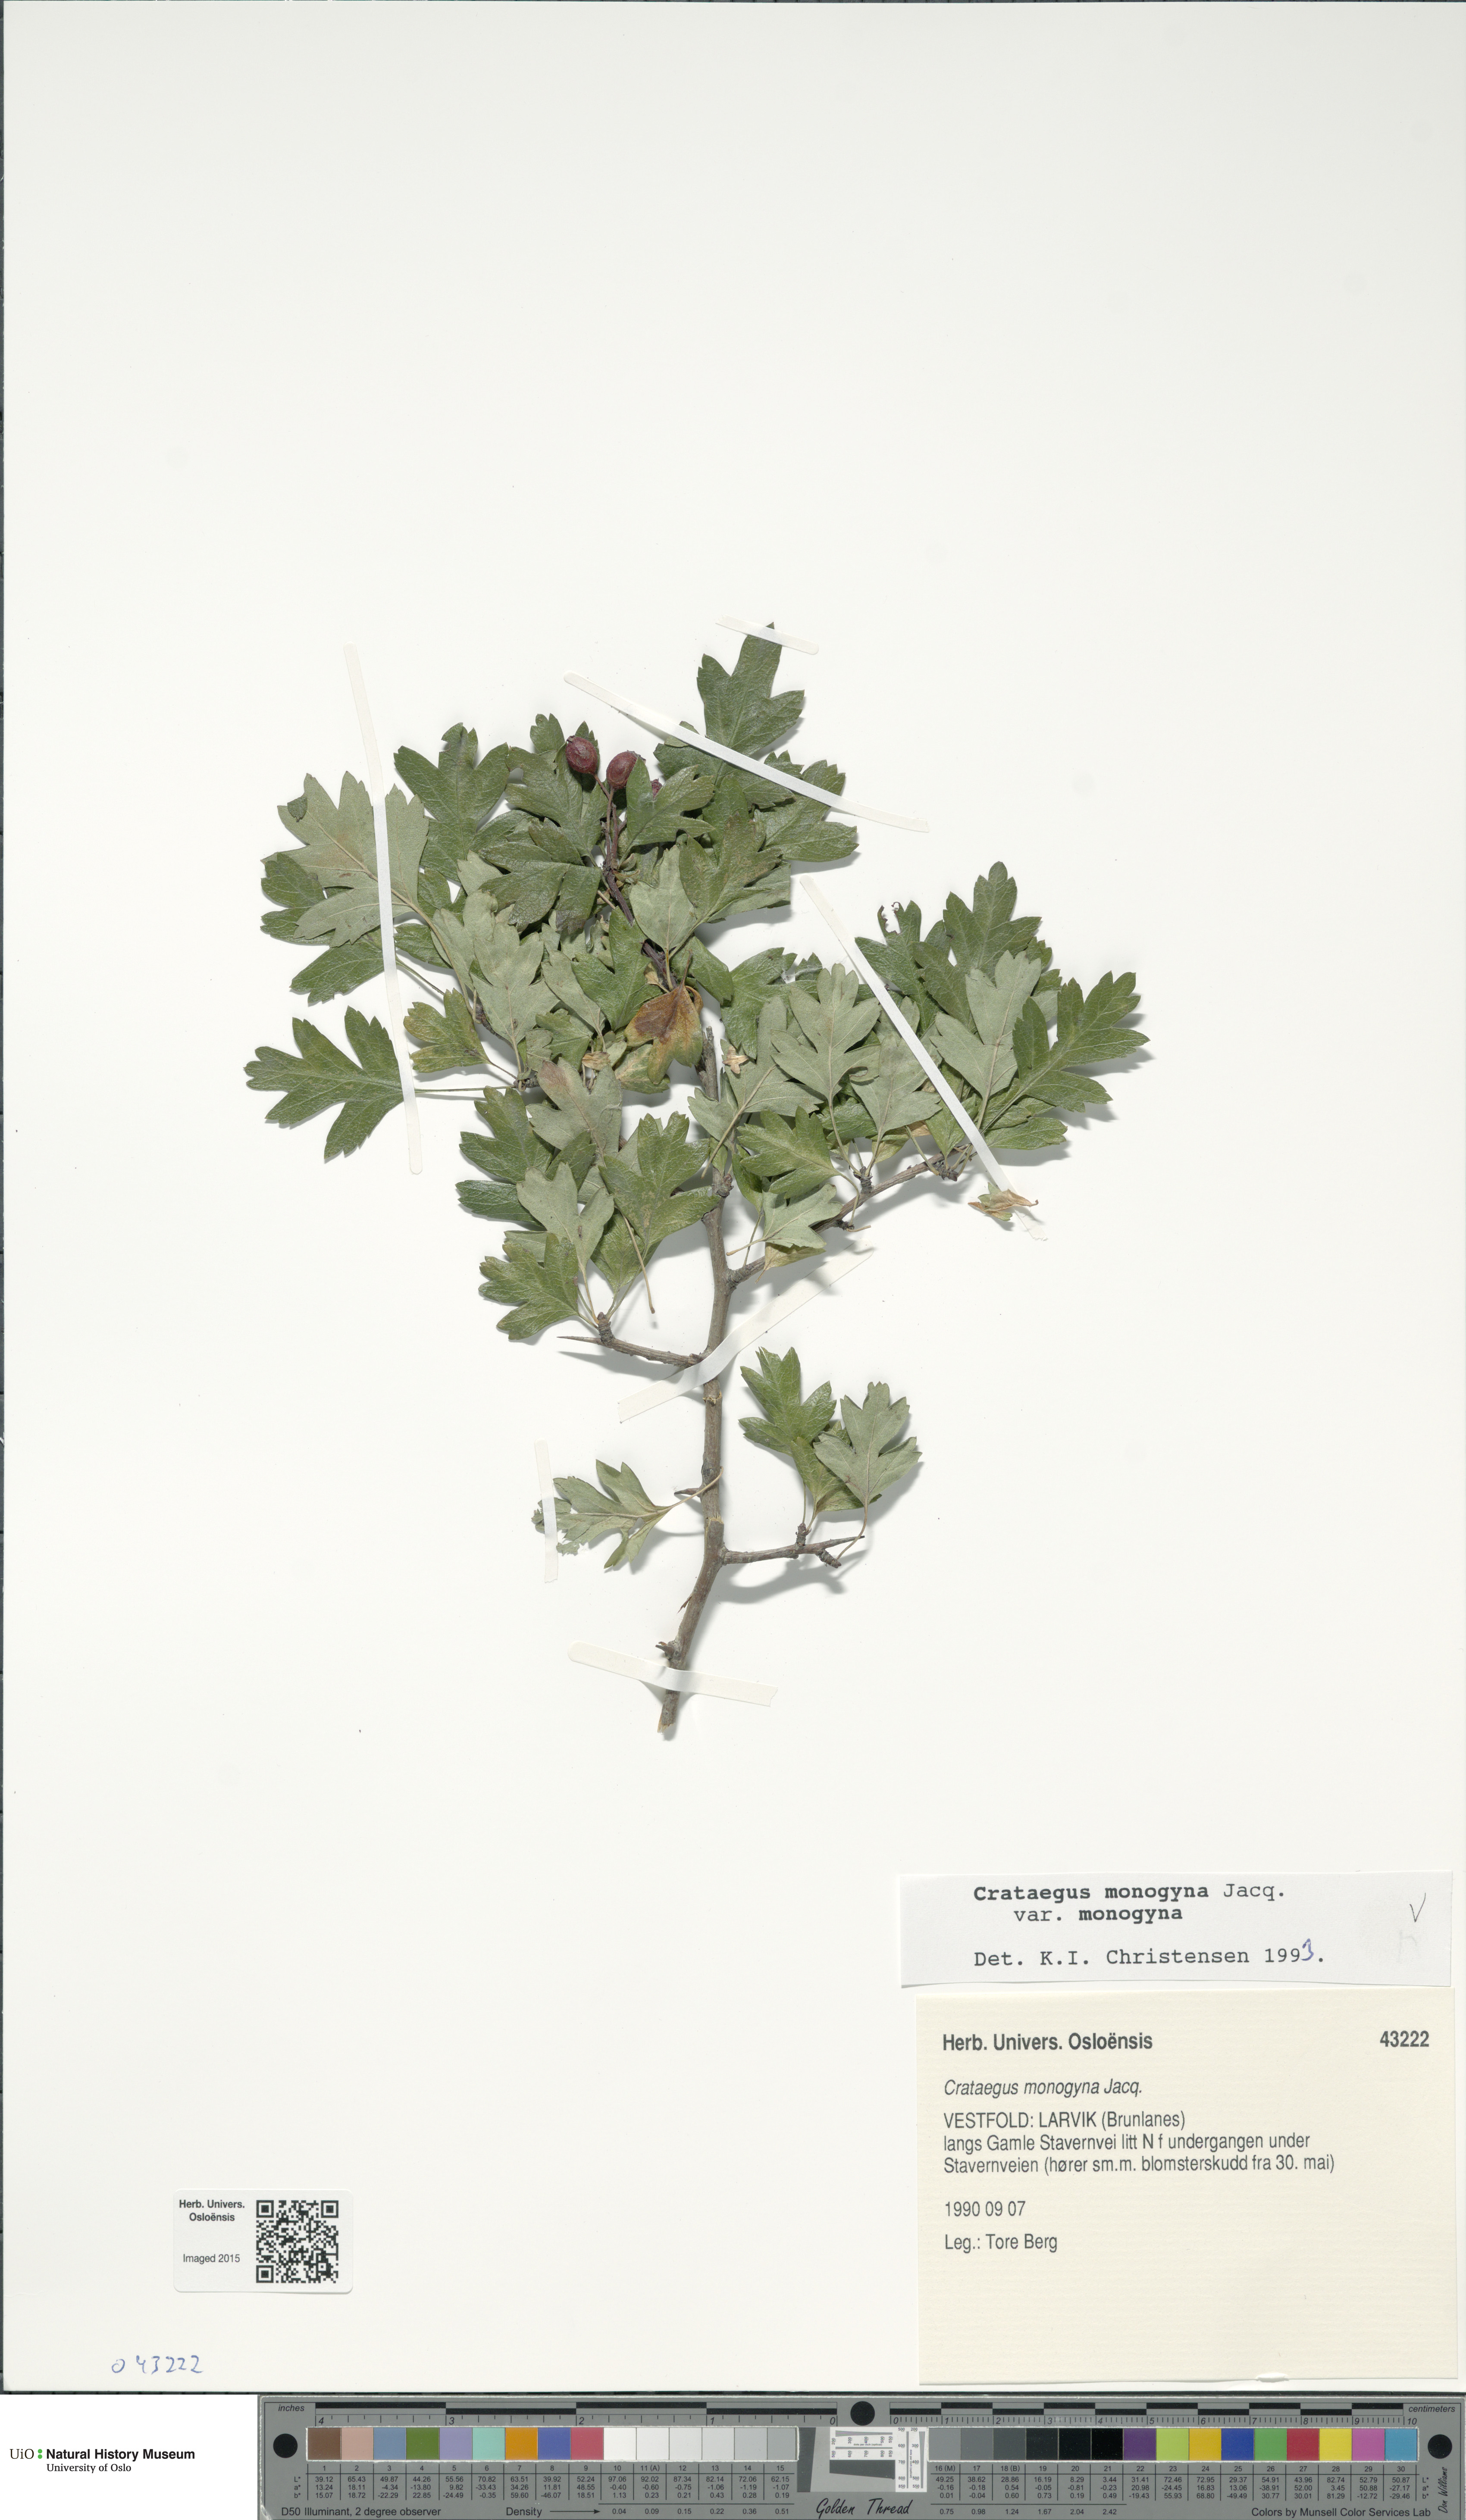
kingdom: Plantae
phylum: Tracheophyta
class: Magnoliopsida
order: Rosales
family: Rosaceae
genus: Crataegus
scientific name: Crataegus monogyna
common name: Hawthorn
